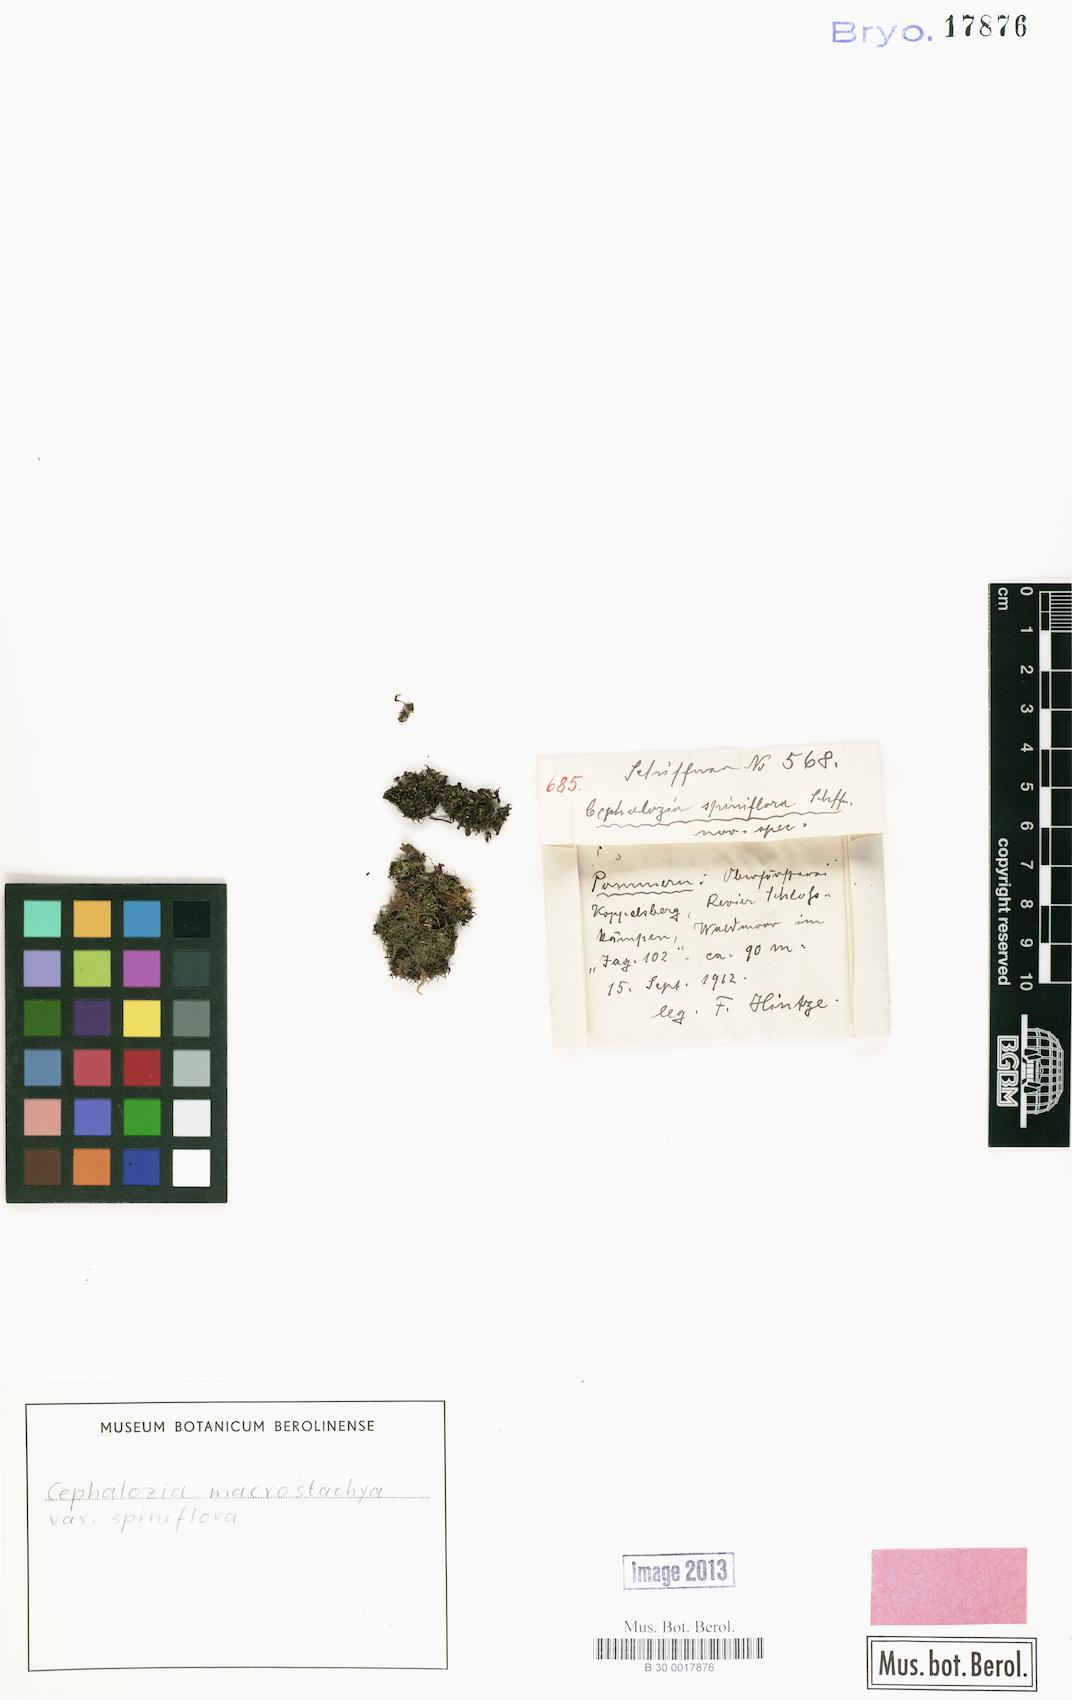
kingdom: Plantae
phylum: Marchantiophyta
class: Jungermanniopsida
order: Jungermanniales
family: Cephaloziaceae
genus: Fuscocephaloziopsis
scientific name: Fuscocephaloziopsis macrostachya
